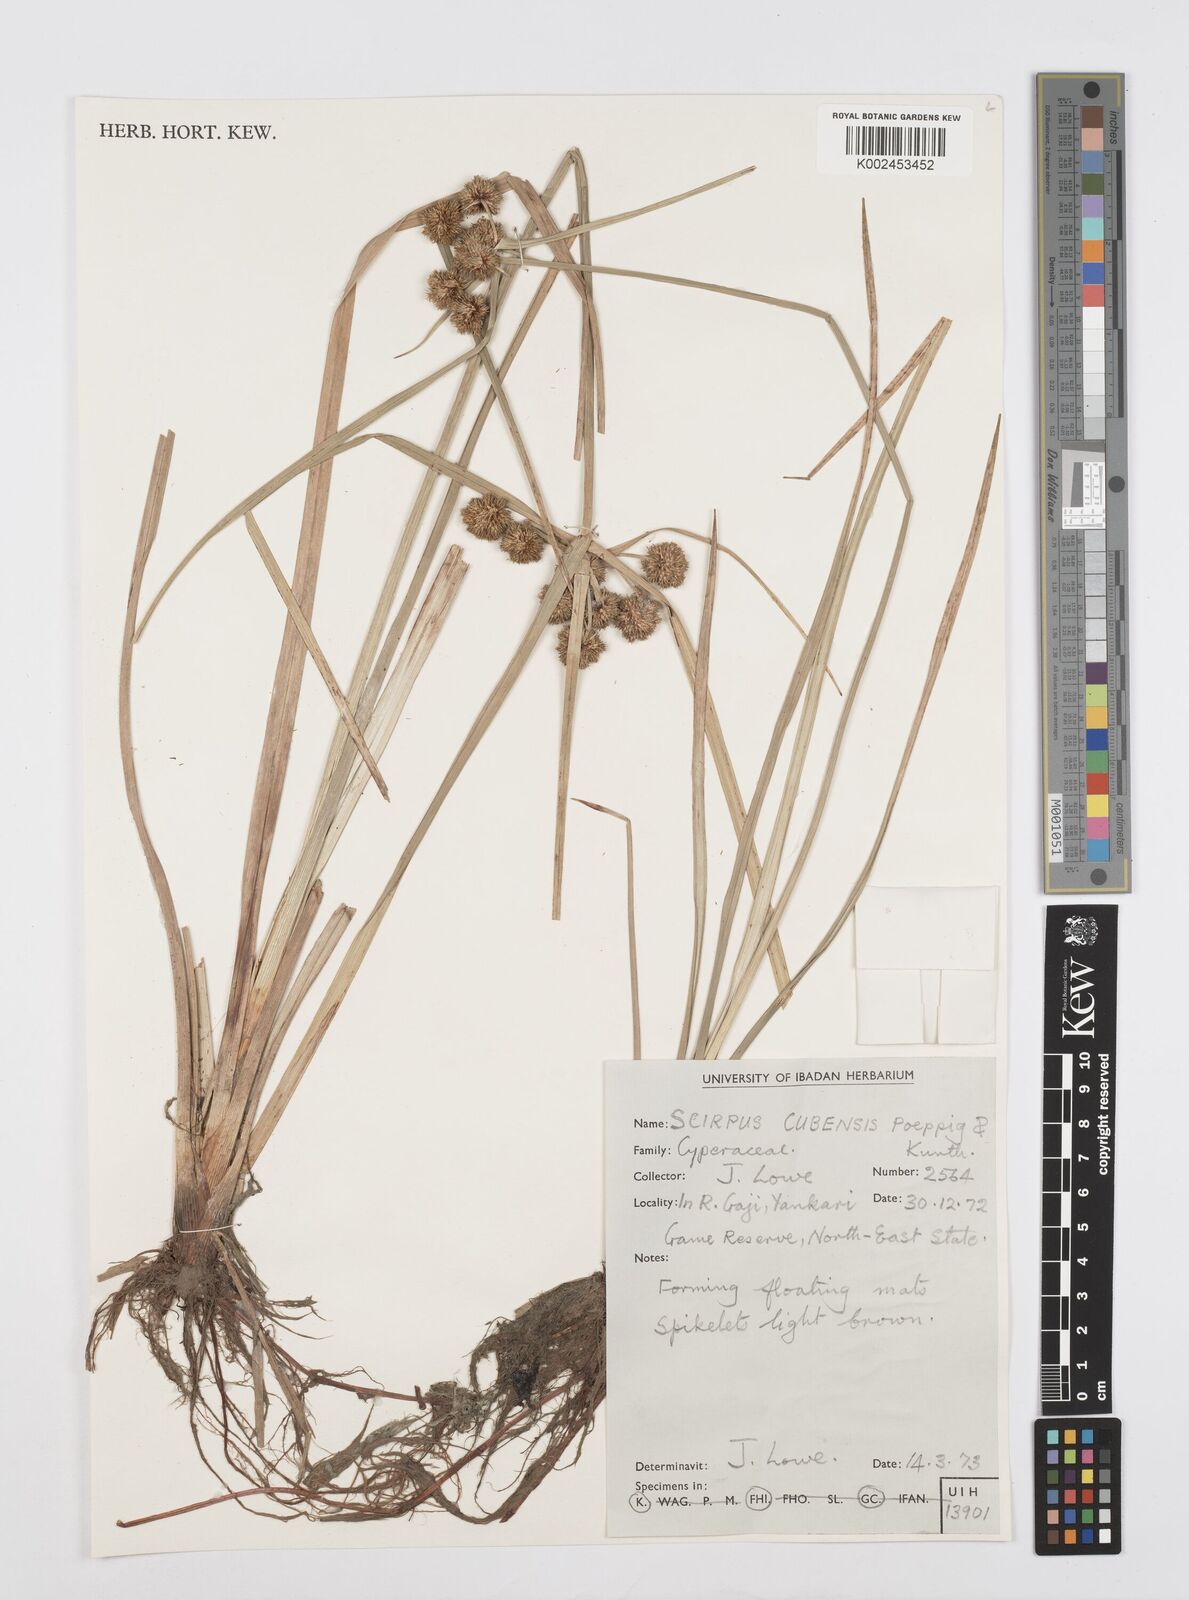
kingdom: Plantae
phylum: Tracheophyta
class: Liliopsida
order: Poales
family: Cyperaceae
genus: Cyperus
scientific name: Cyperus elegans
